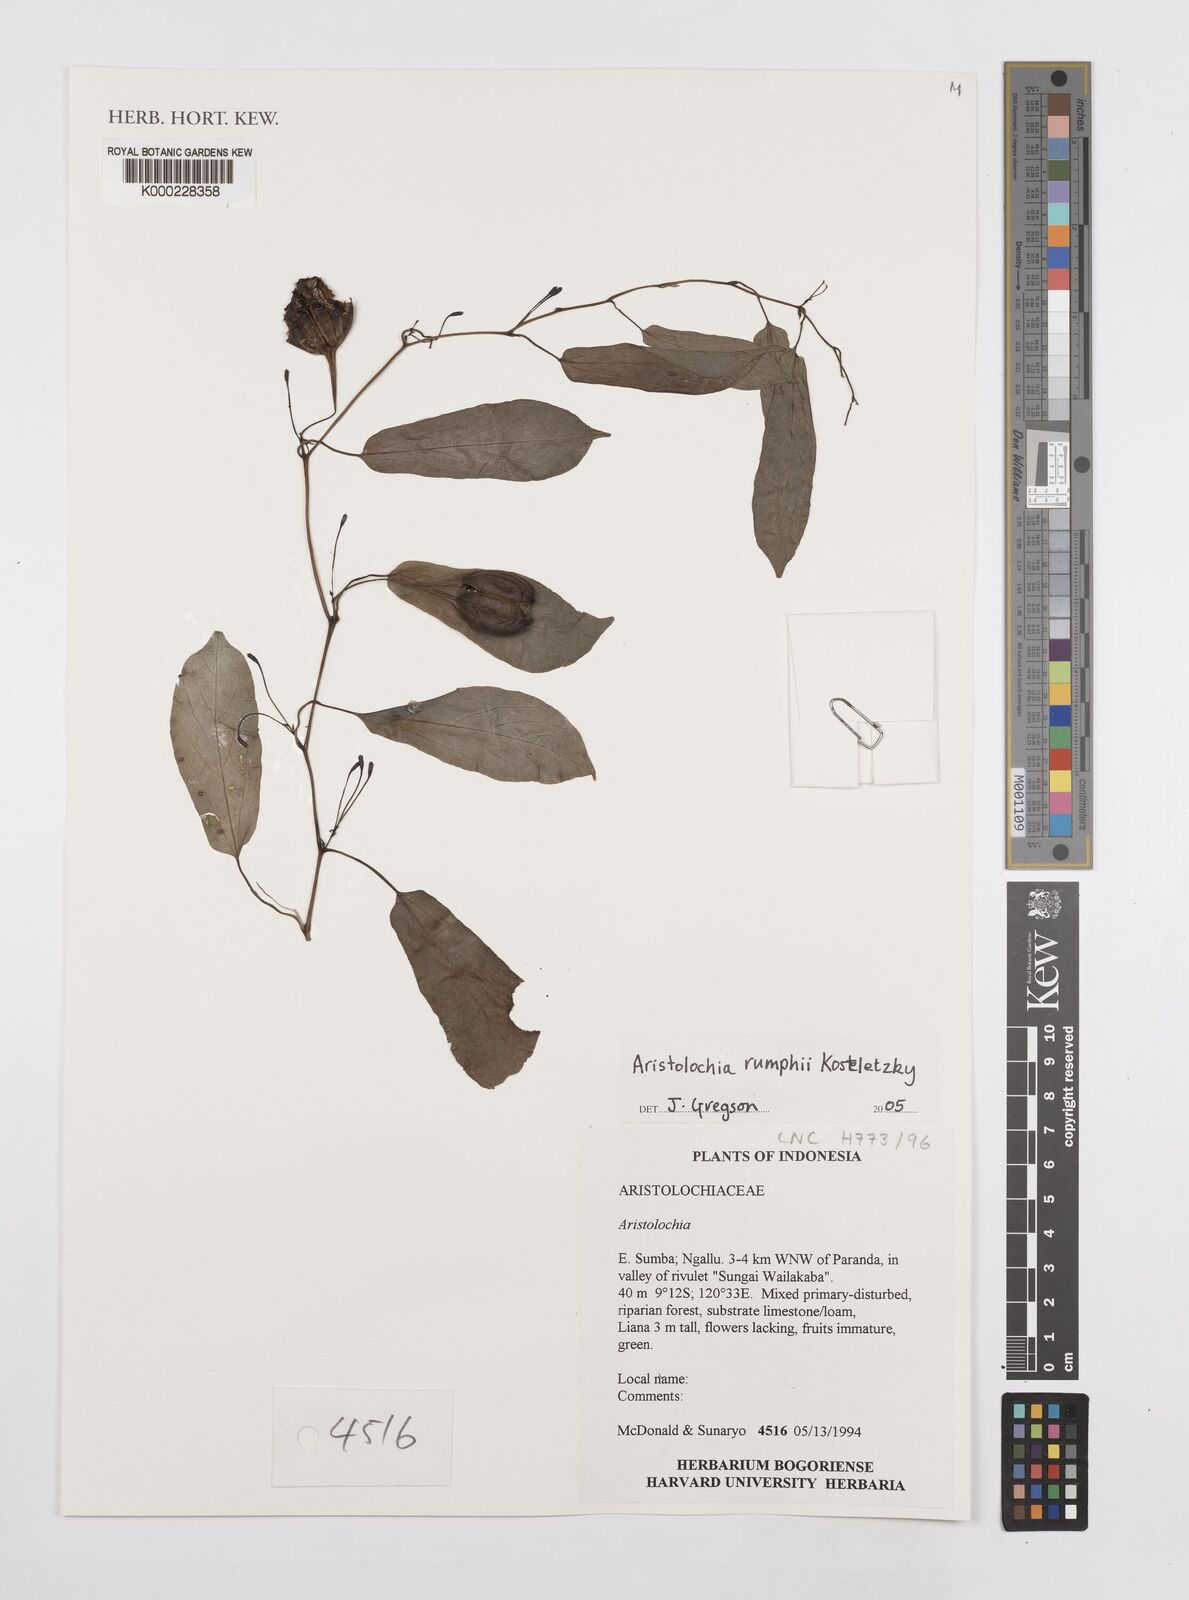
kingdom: Plantae
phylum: Tracheophyta
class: Magnoliopsida
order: Piperales
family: Aristolochiaceae
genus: Aristolochia
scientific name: Aristolochia rumphii
